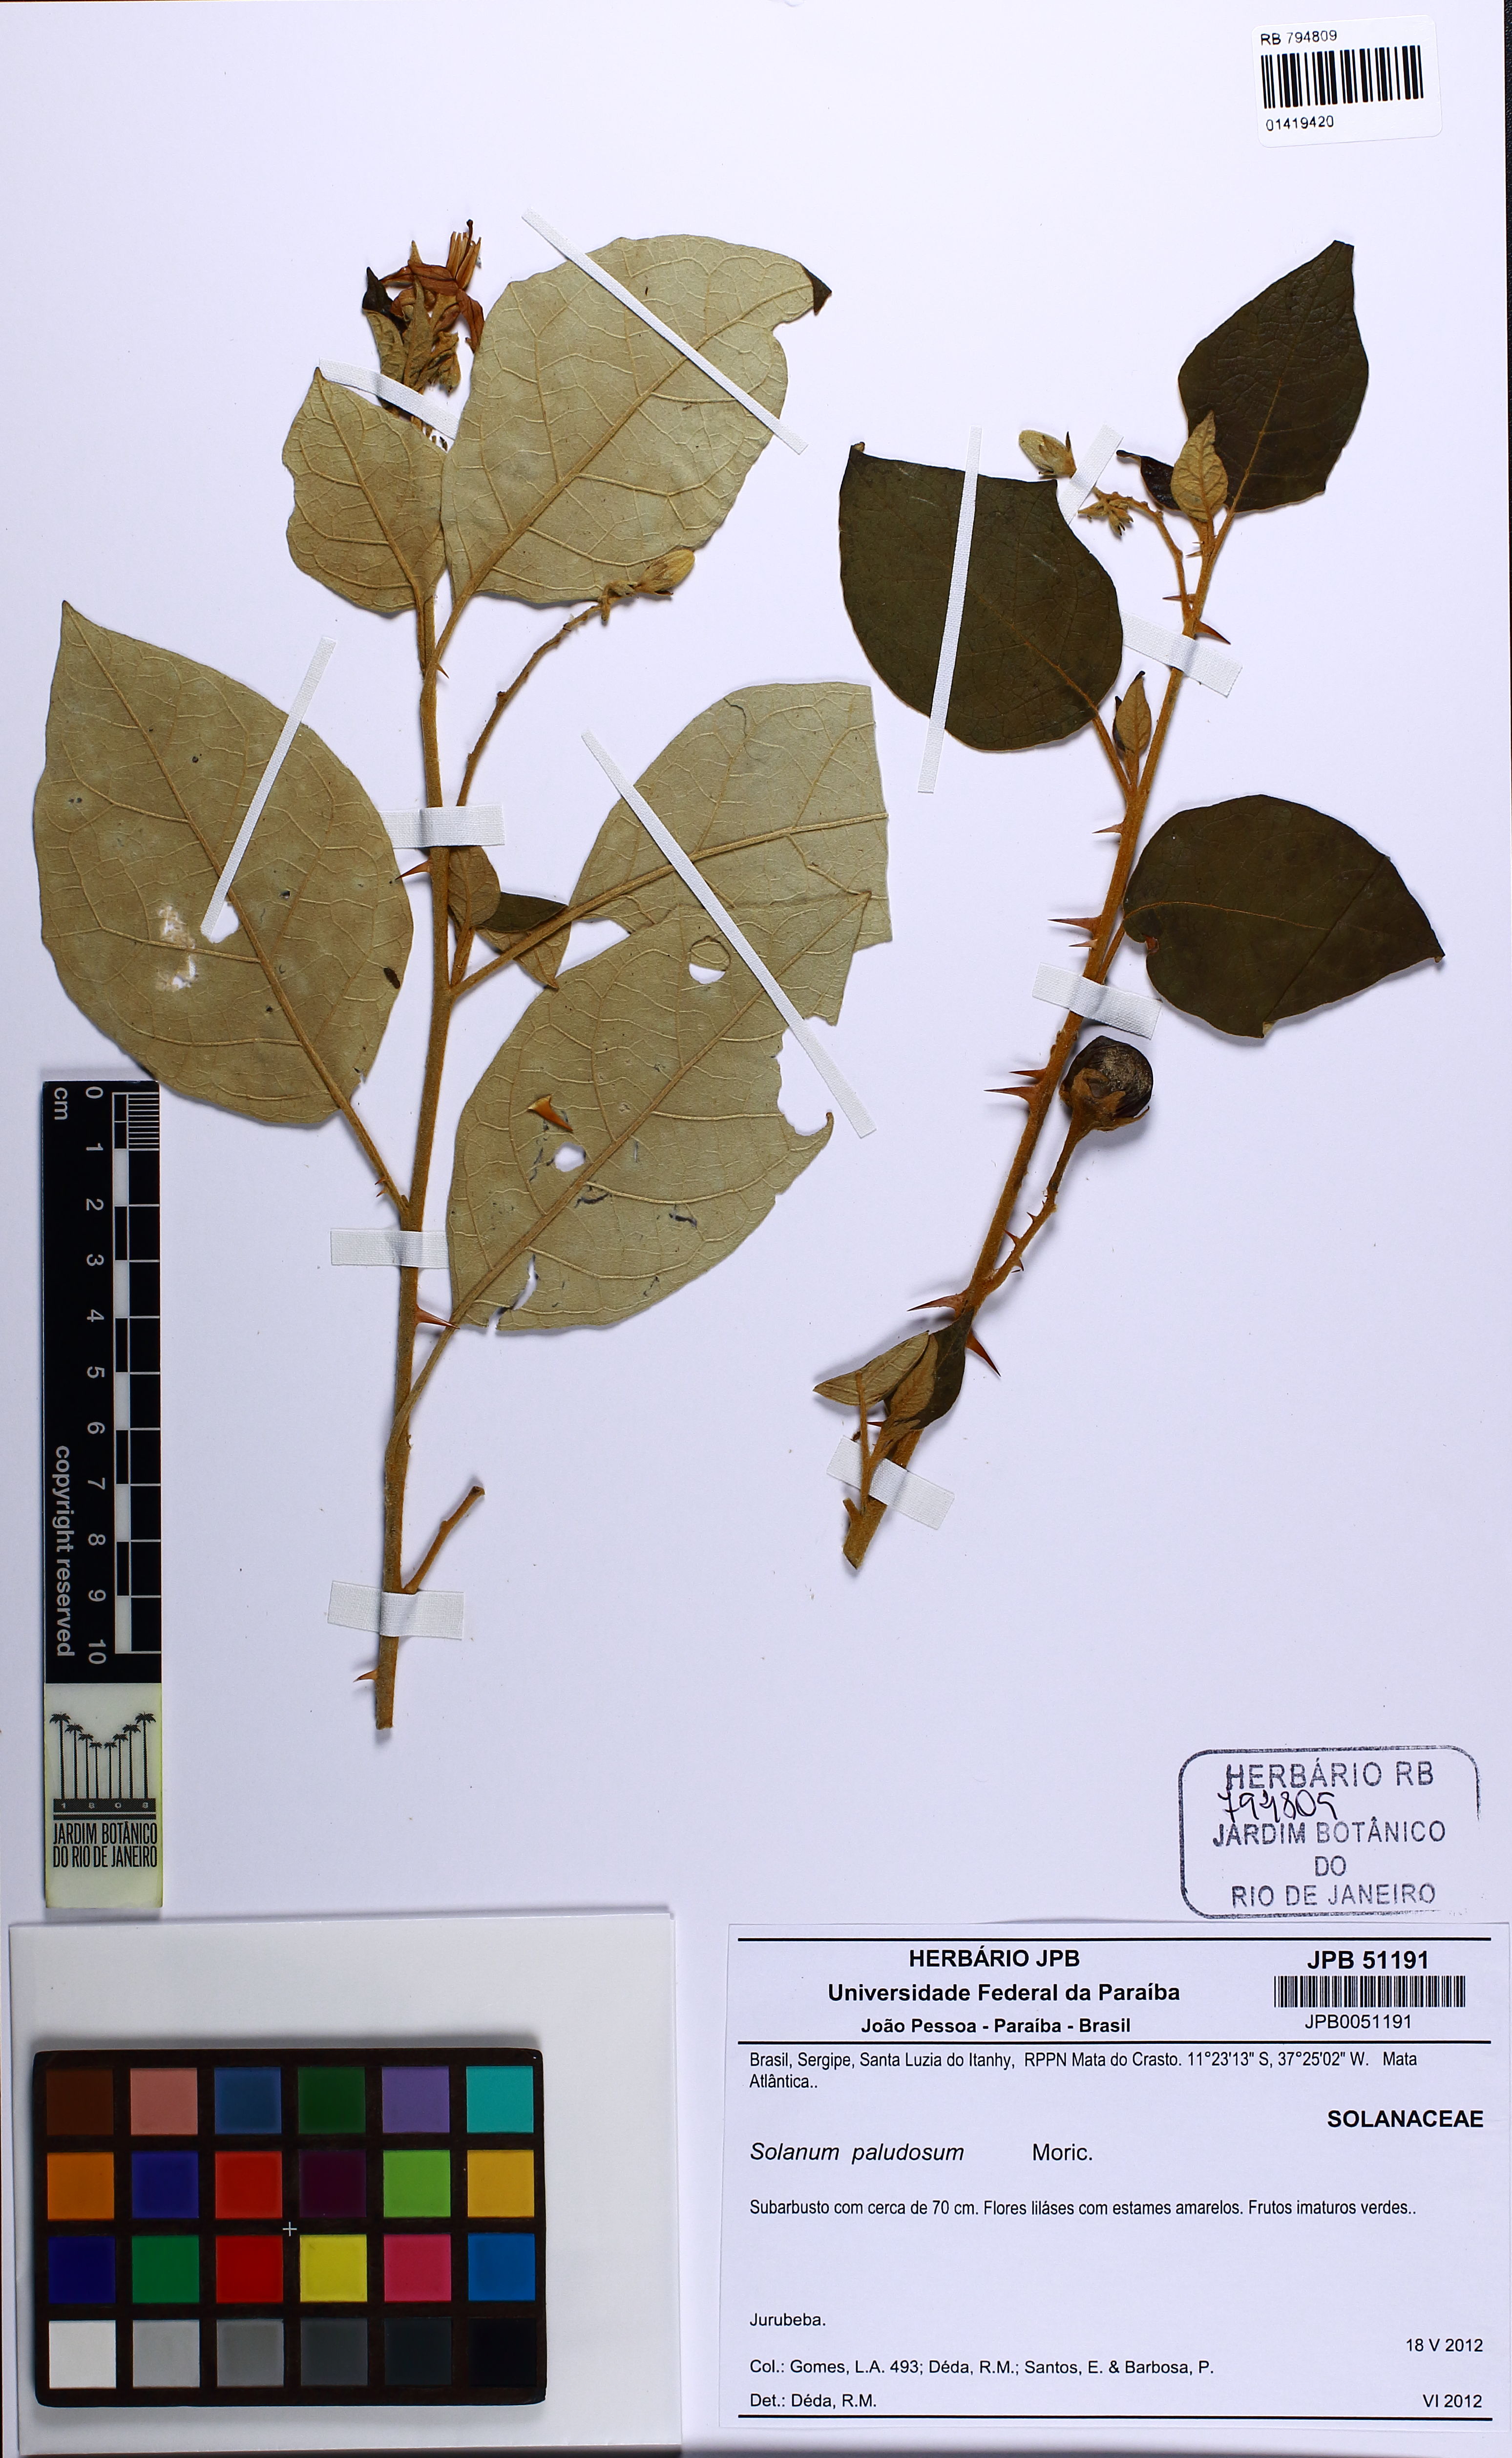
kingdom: Plantae
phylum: Tracheophyta
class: Magnoliopsida
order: Solanales
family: Solanaceae
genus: Solanum
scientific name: Solanum paludosum
